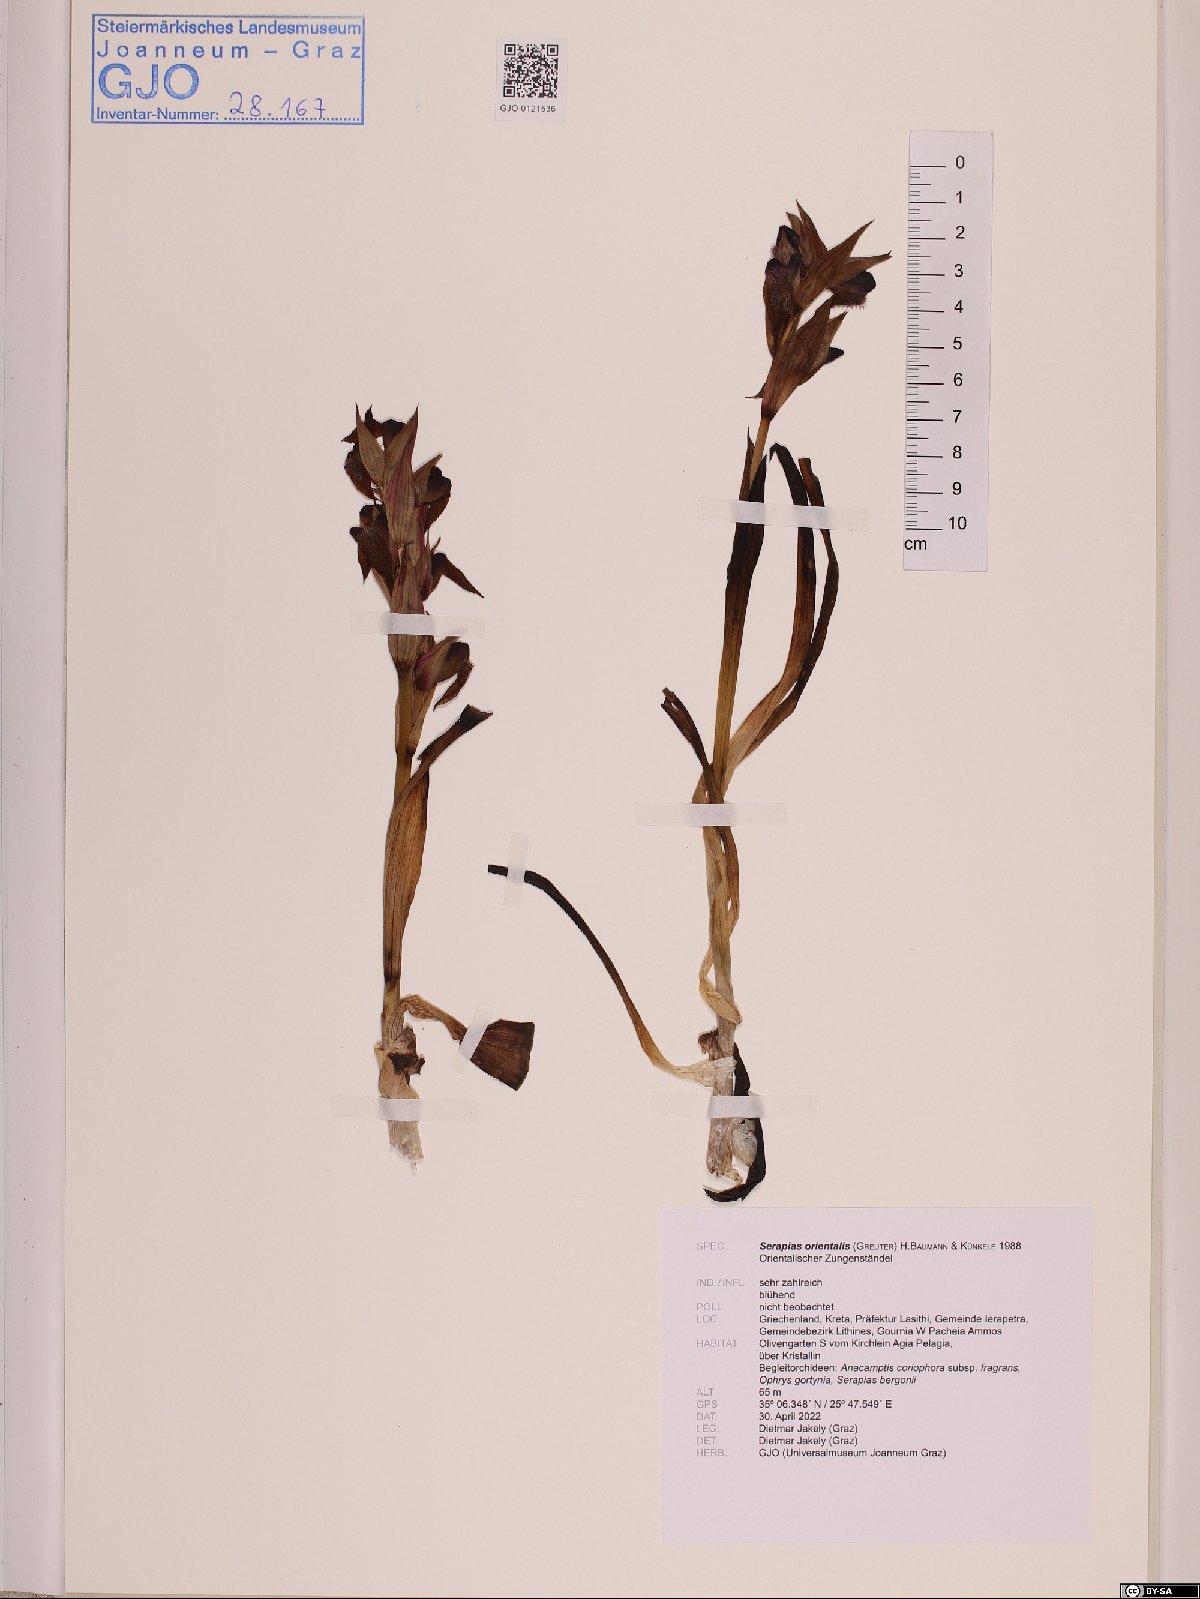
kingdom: Plantae
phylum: Tracheophyta
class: Liliopsida
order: Asparagales
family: Orchidaceae
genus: Serapias
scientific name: Serapias orientalis
